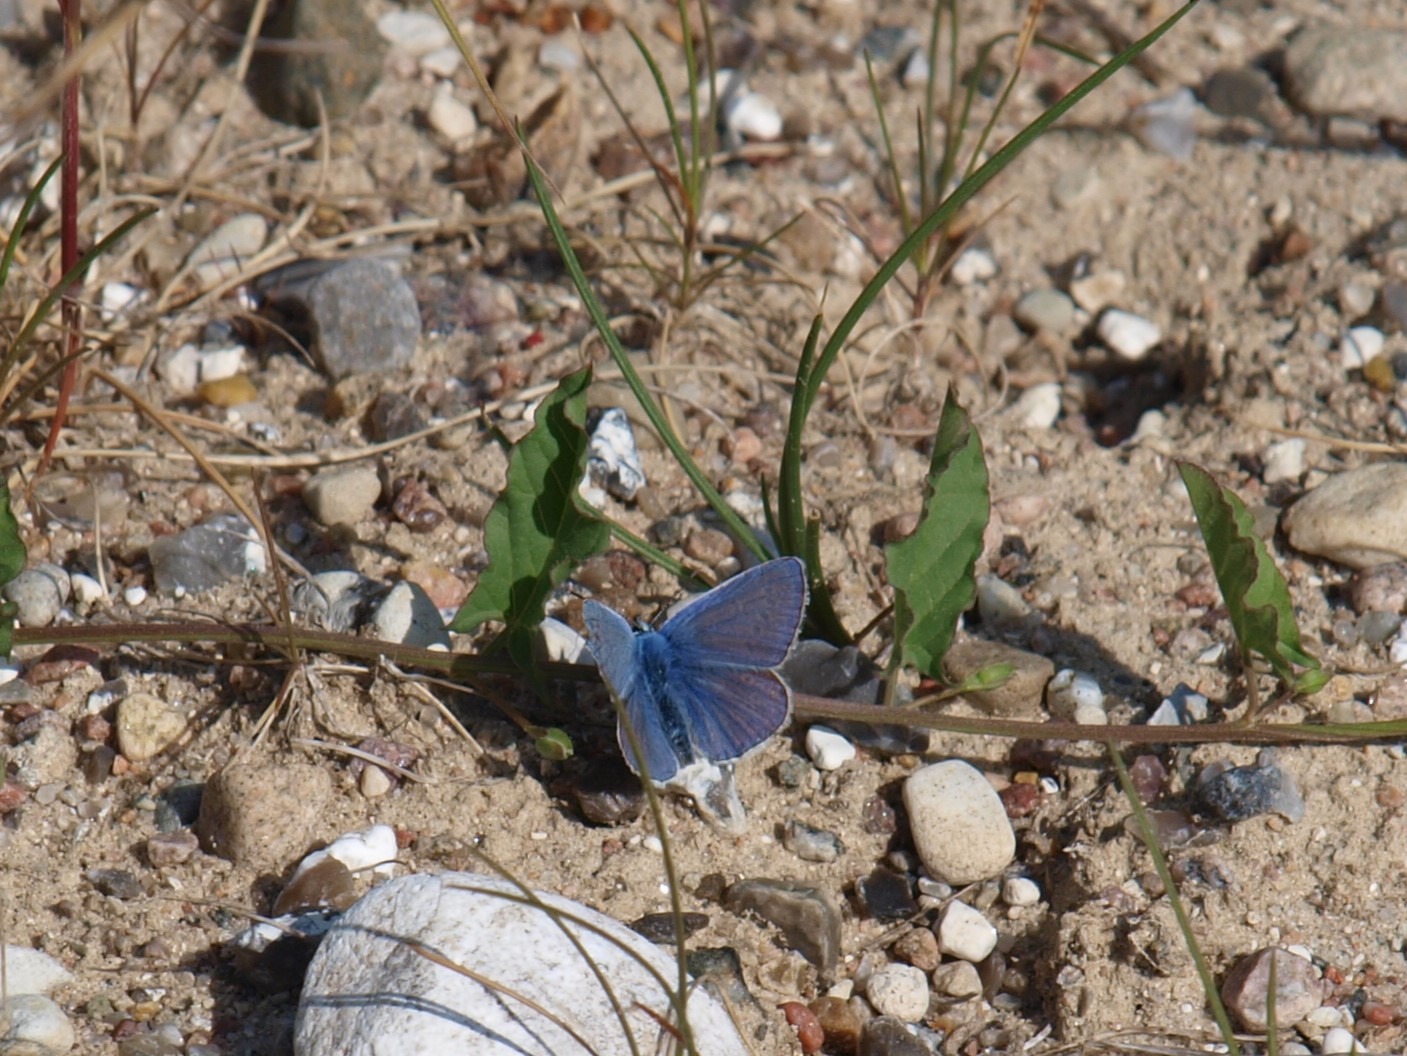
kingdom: Animalia
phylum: Arthropoda
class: Insecta
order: Lepidoptera
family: Lycaenidae
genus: Polyommatus
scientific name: Polyommatus icarus
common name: Almindelig blåfugl
